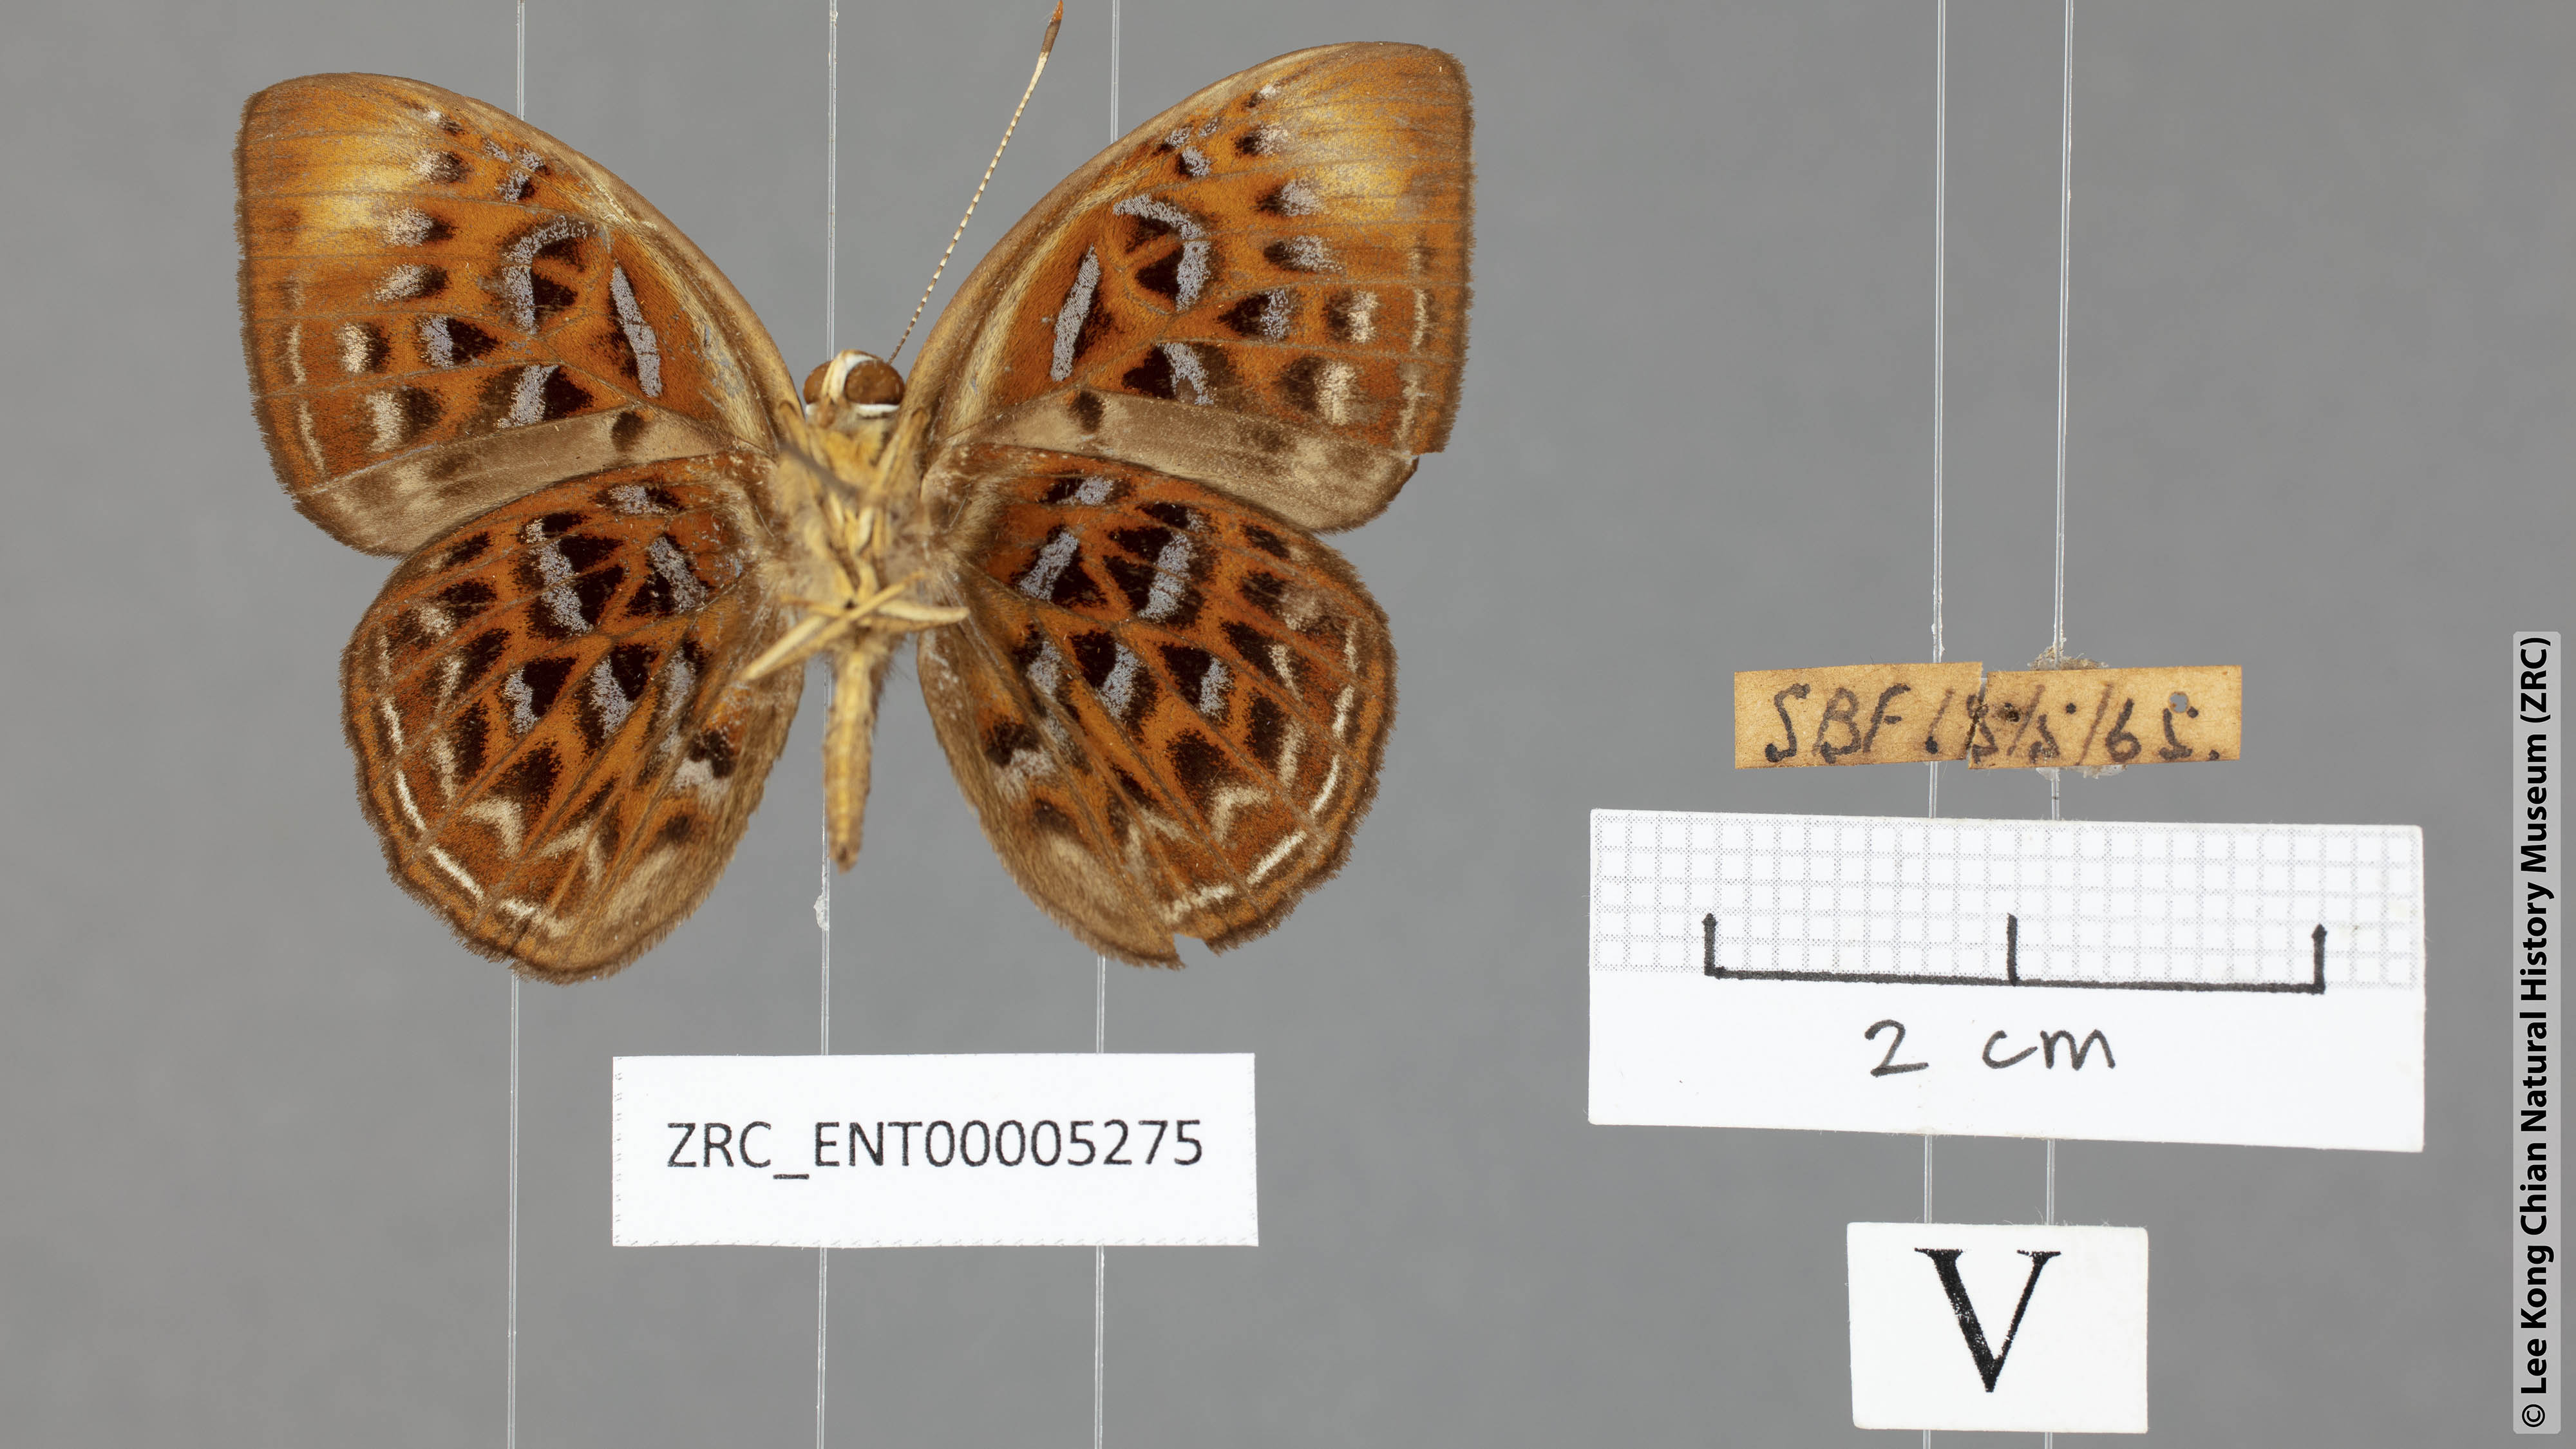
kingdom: Animalia
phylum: Arthropoda
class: Insecta
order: Lepidoptera
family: Erebidae
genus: Dysschema
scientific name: Dysschema
